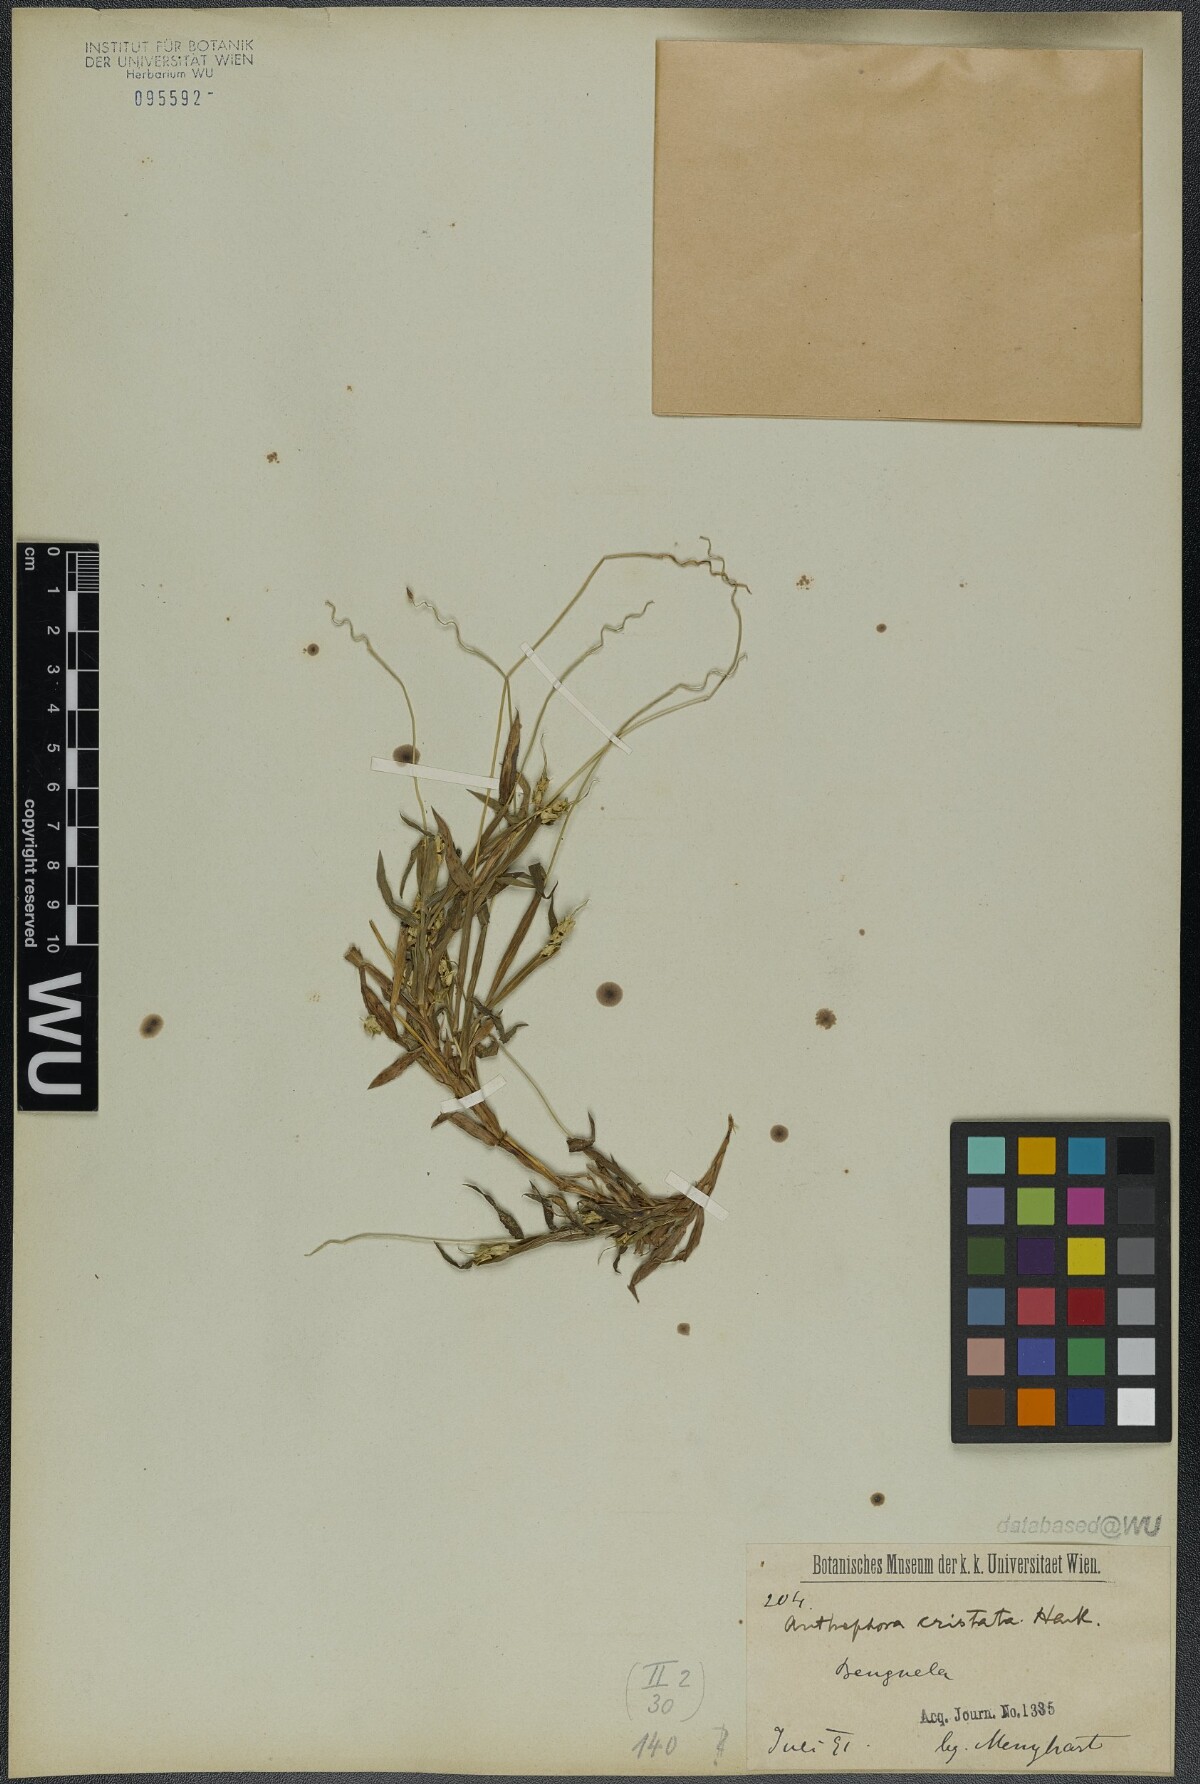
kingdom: Plantae
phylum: Tracheophyta
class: Liliopsida
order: Poales
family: Poaceae
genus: Anthephora
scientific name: Anthephora cristata
